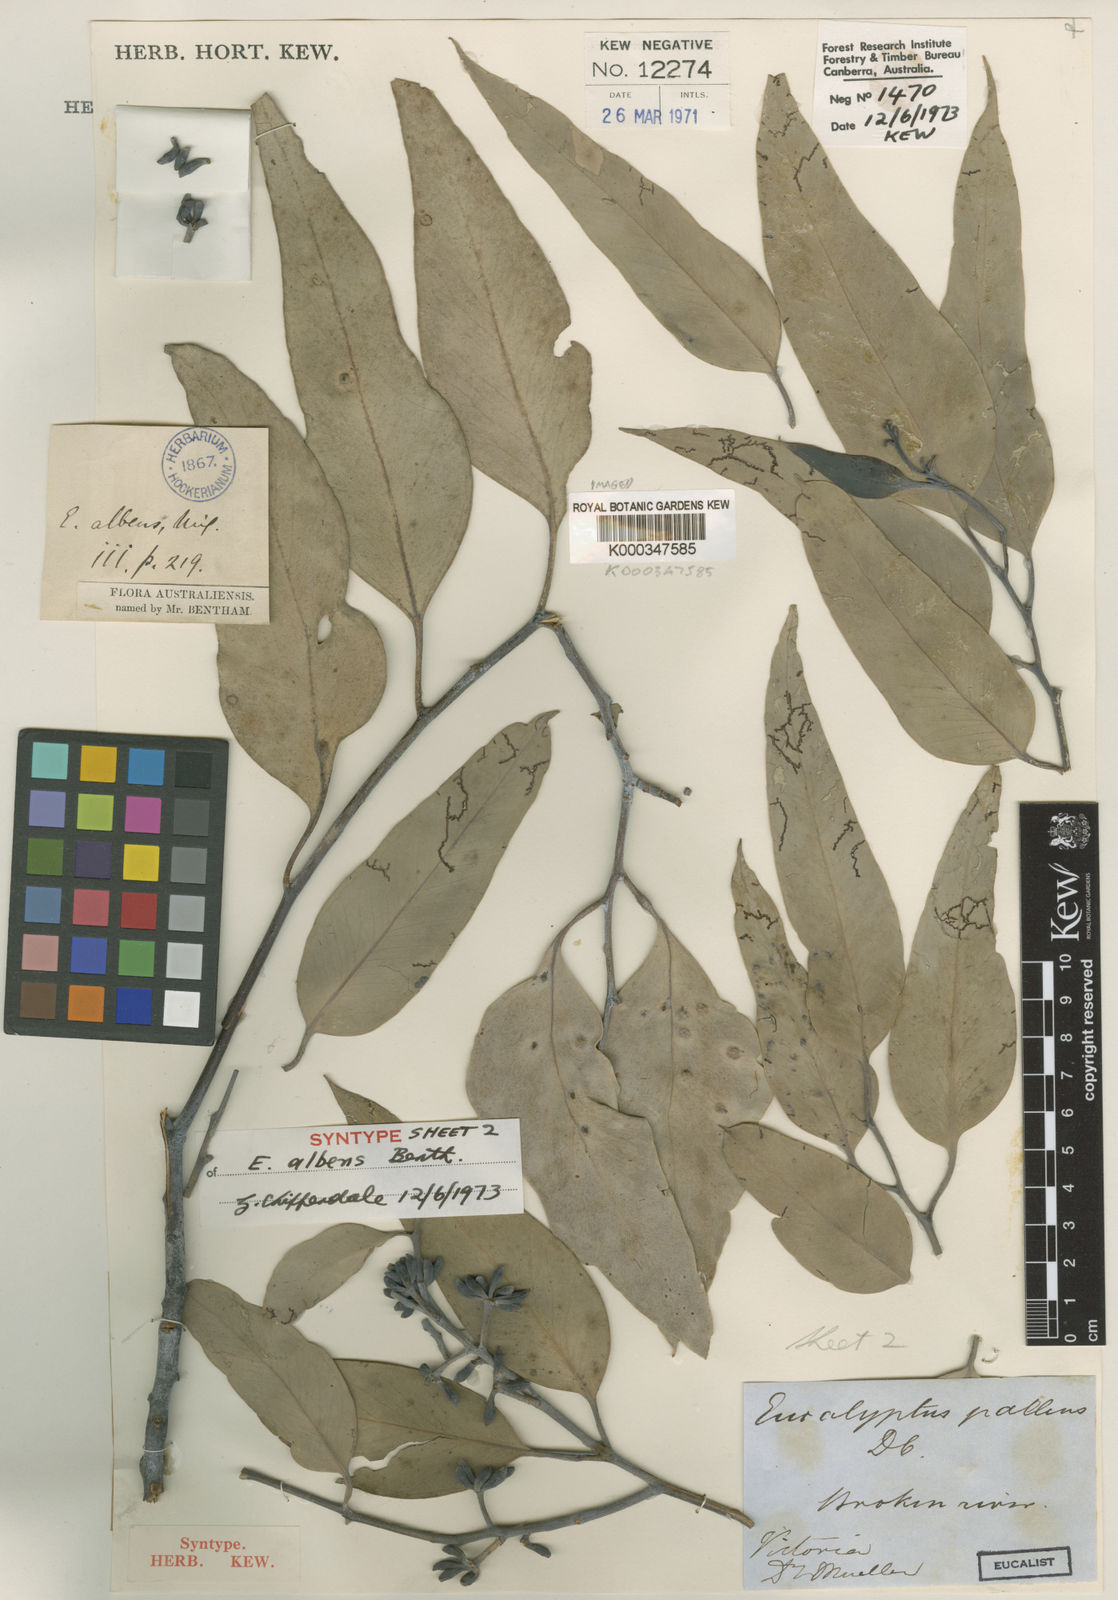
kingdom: Plantae
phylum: Tracheophyta
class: Magnoliopsida
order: Myrtales
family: Myrtaceae
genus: Eucalyptus
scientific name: Eucalyptus albens
